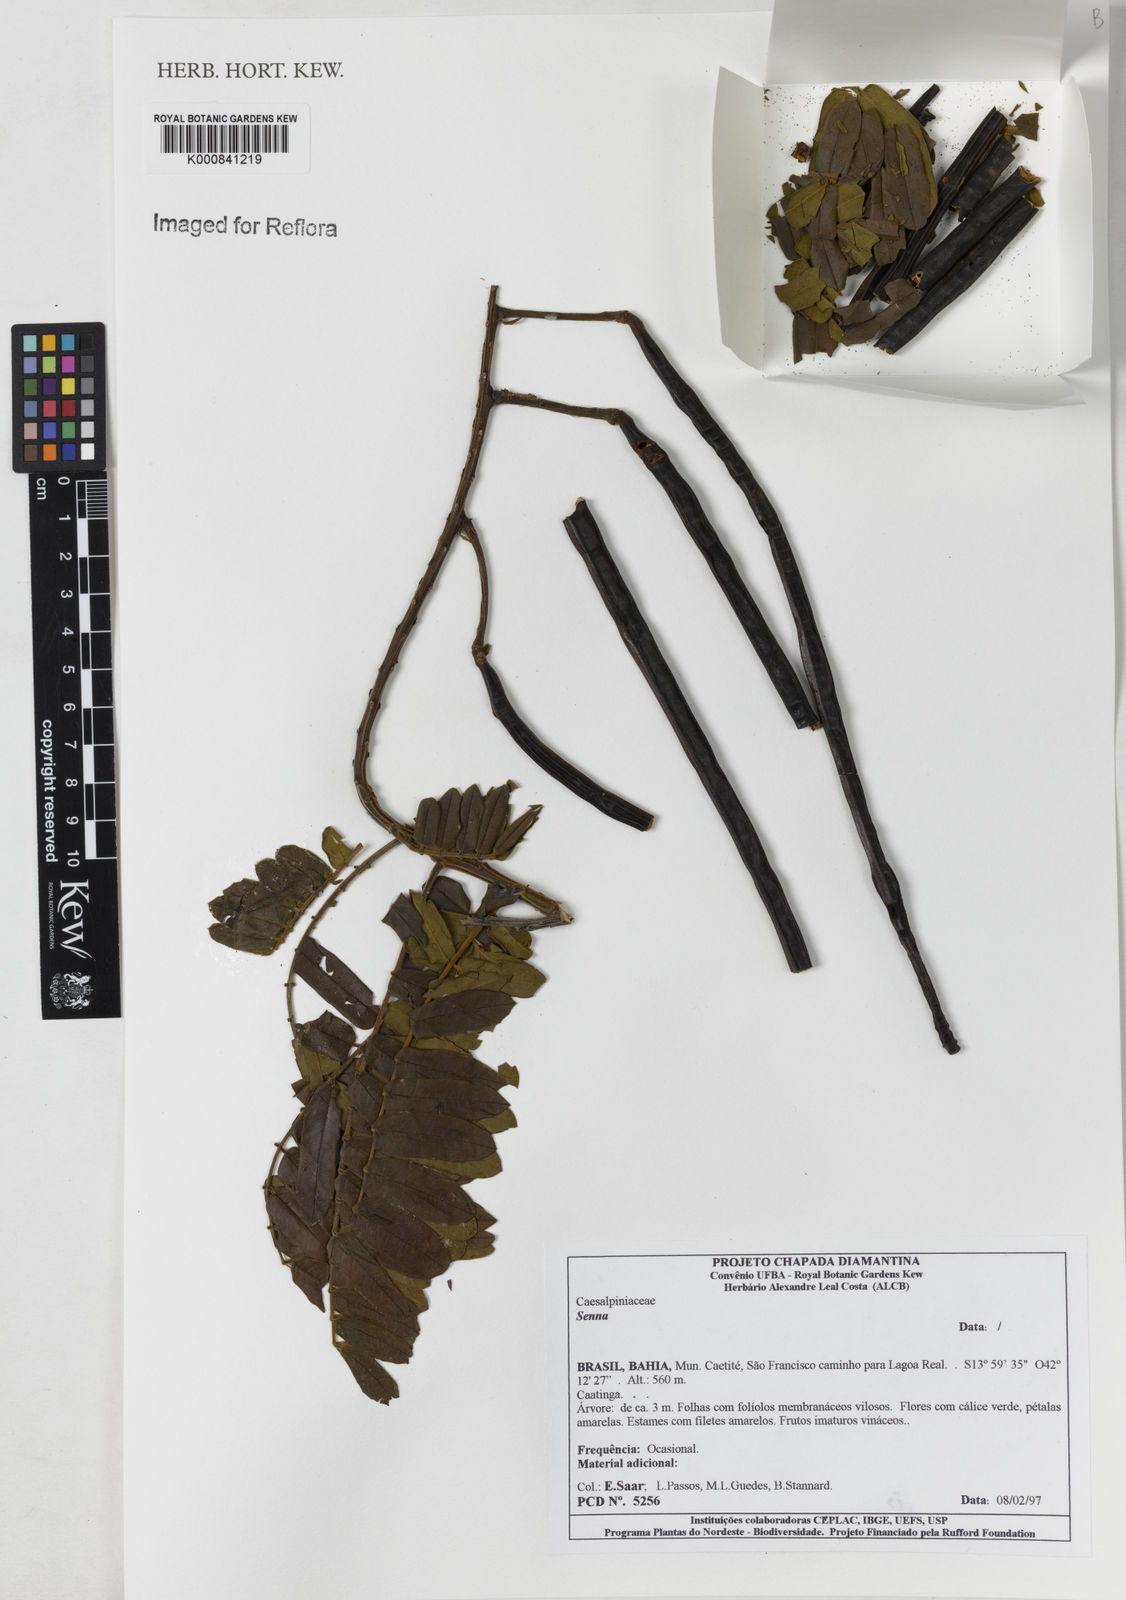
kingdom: Plantae
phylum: Tracheophyta
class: Magnoliopsida
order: Fabales
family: Fabaceae
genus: Senna
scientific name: Senna
